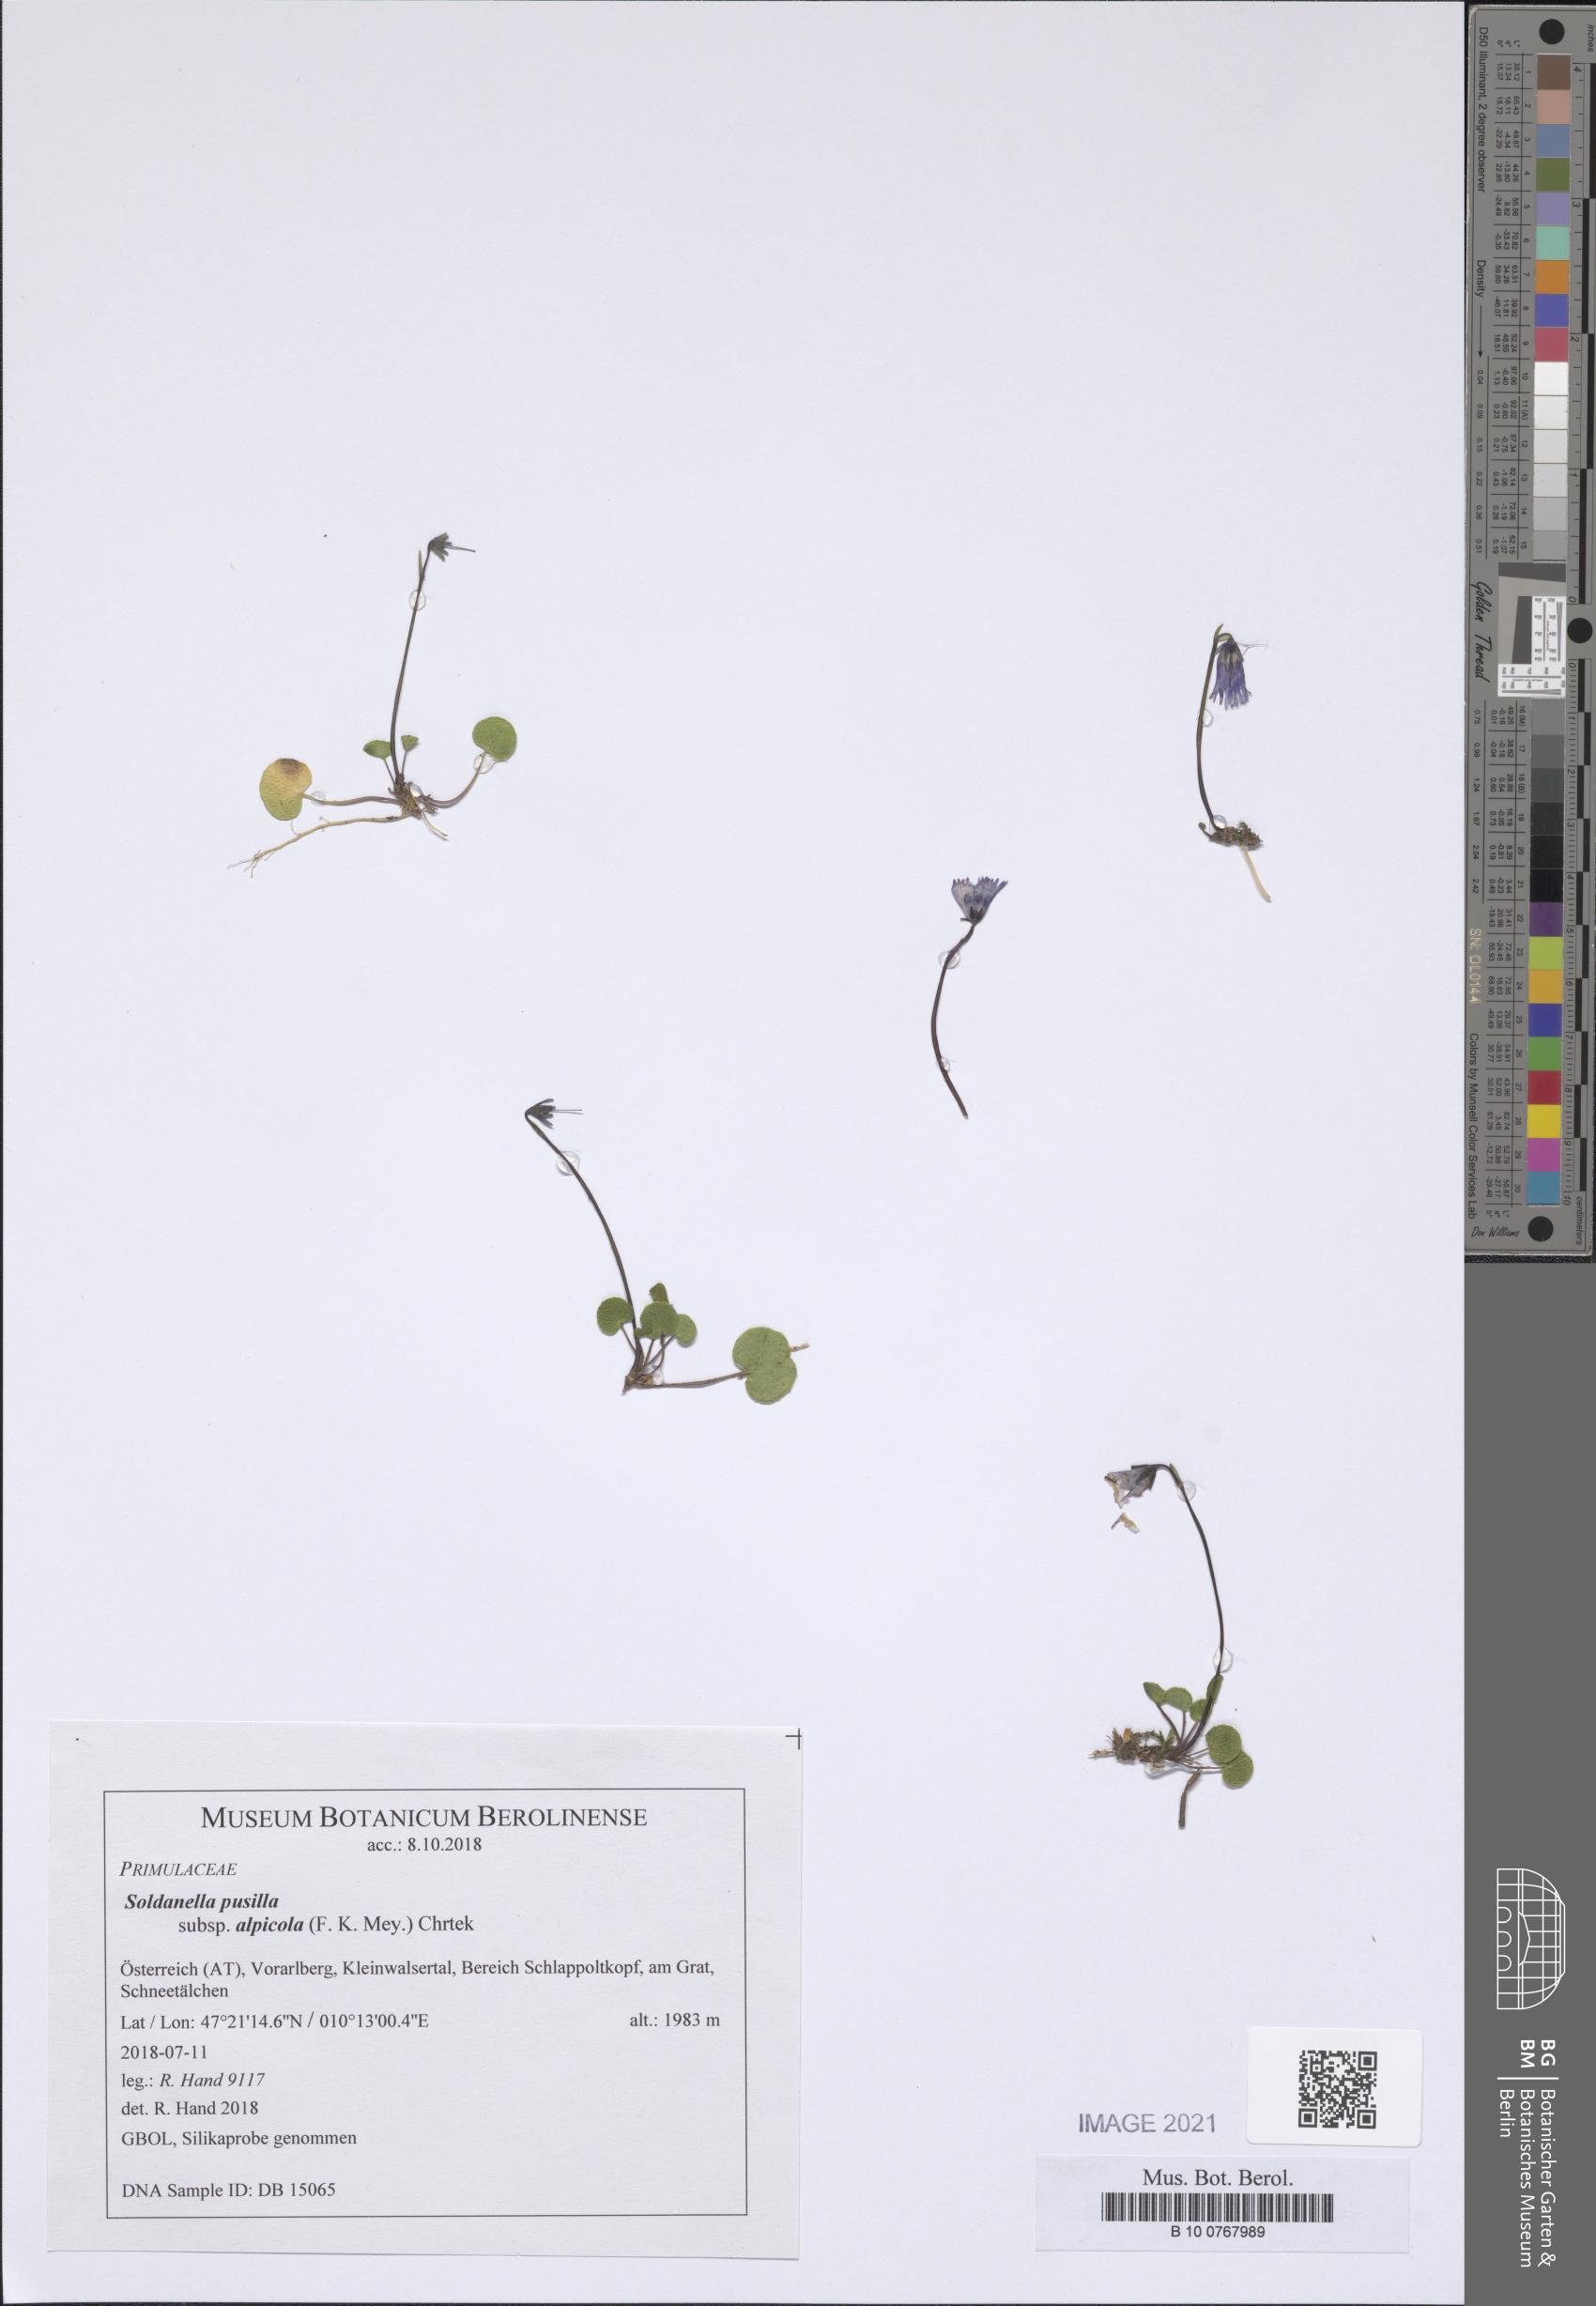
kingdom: Plantae
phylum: Tracheophyta
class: Magnoliopsida
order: Ericales
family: Primulaceae
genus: Soldanella
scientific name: Soldanella alpicola
